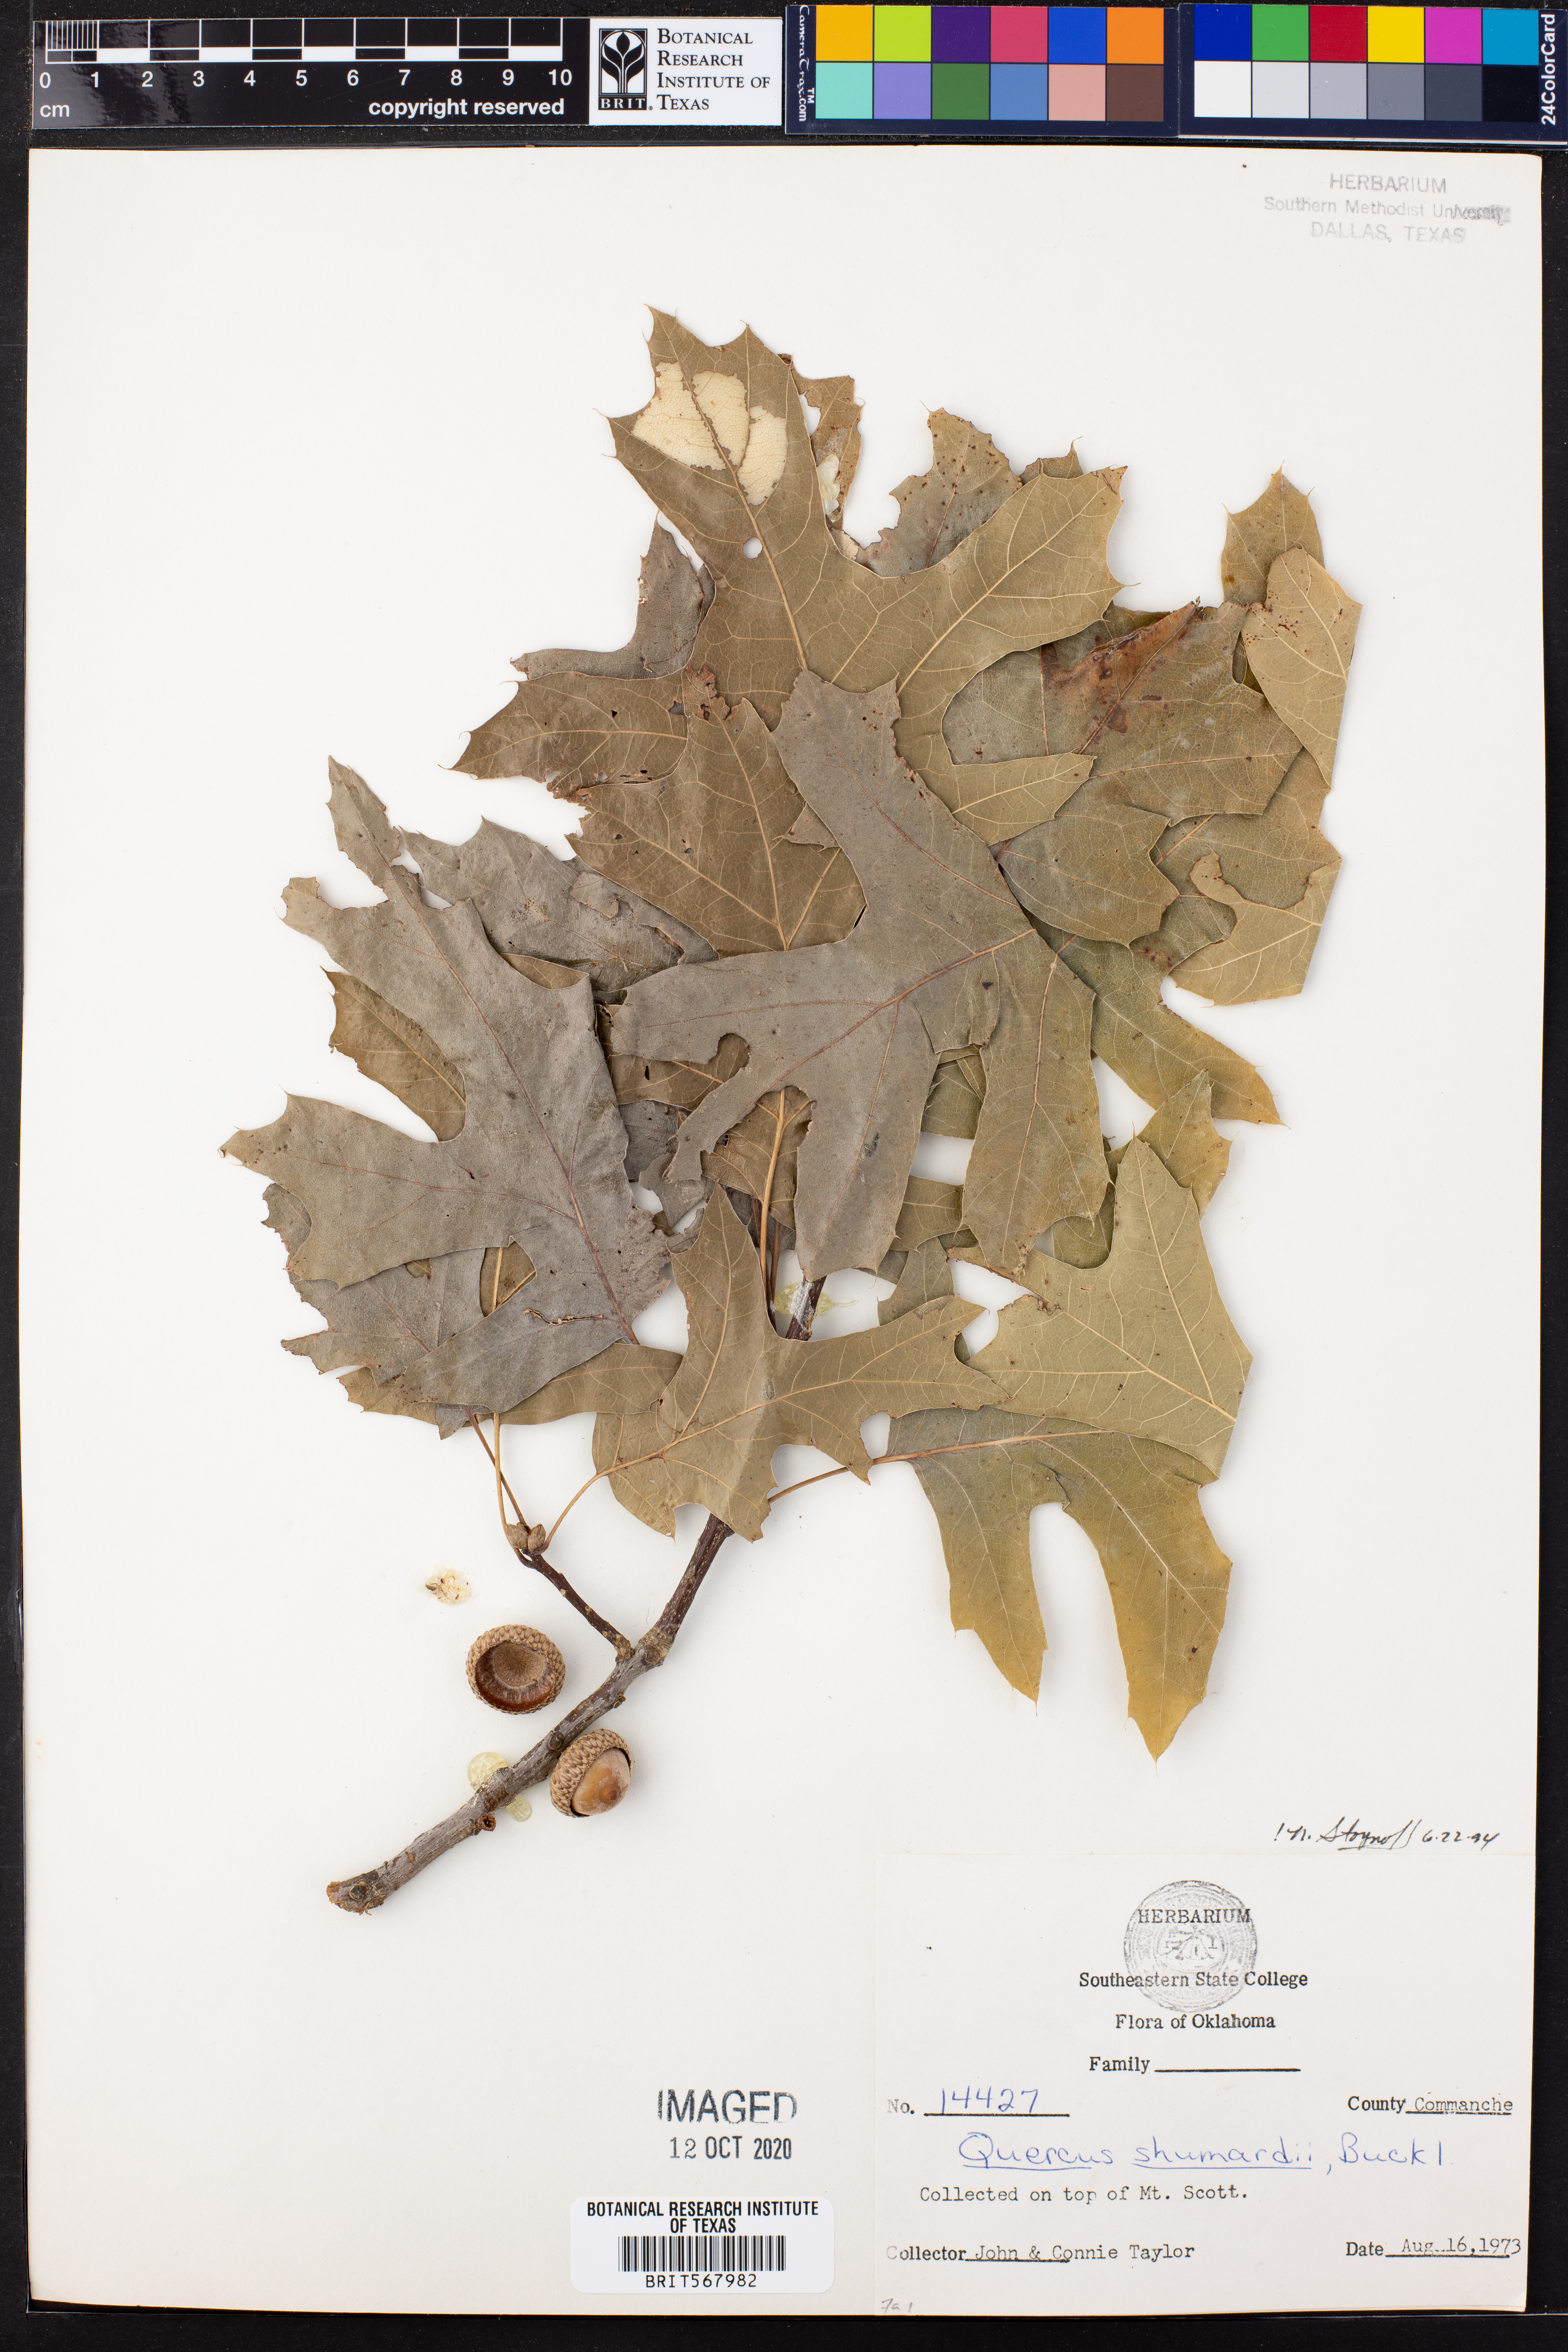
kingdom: Plantae
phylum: Tracheophyta
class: Magnoliopsida
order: Fagales
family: Fagaceae
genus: Quercus
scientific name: Quercus shumardii
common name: Shumard oak
